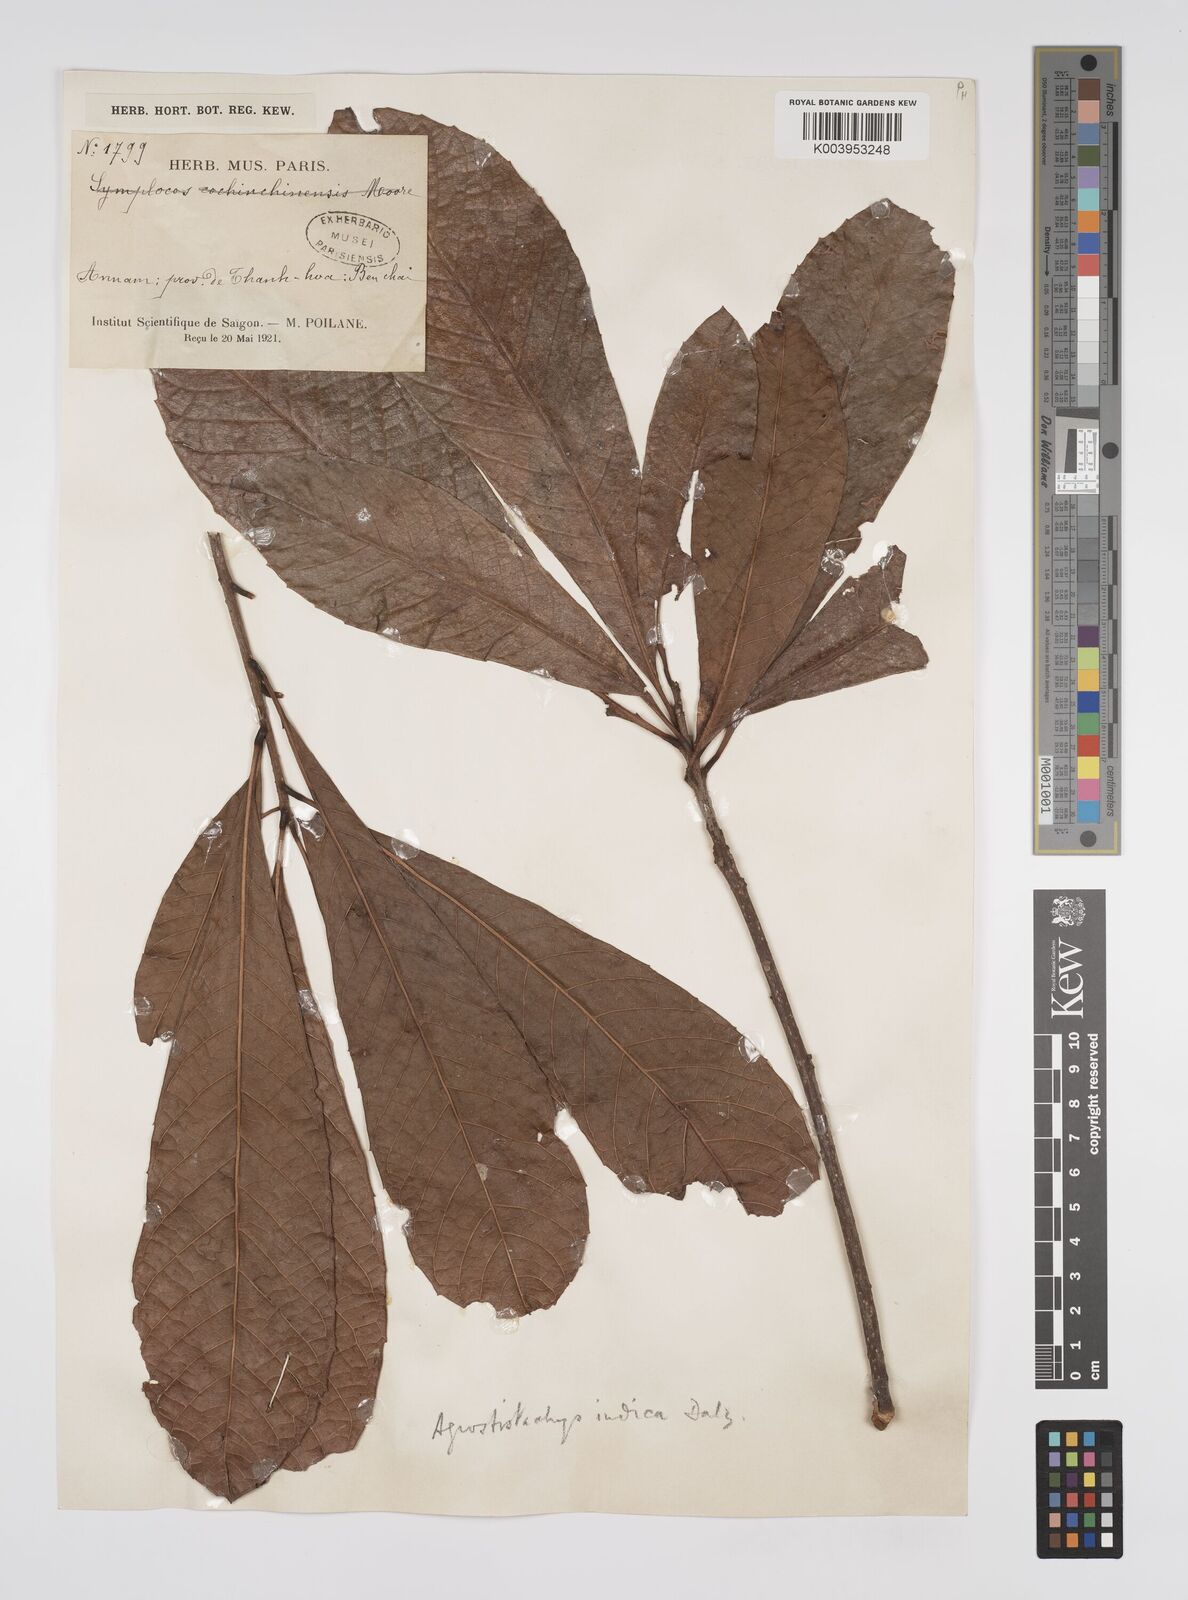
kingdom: Plantae
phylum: Tracheophyta
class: Magnoliopsida
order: Malpighiales
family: Euphorbiaceae
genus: Agrostistachys
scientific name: Agrostistachys indica
